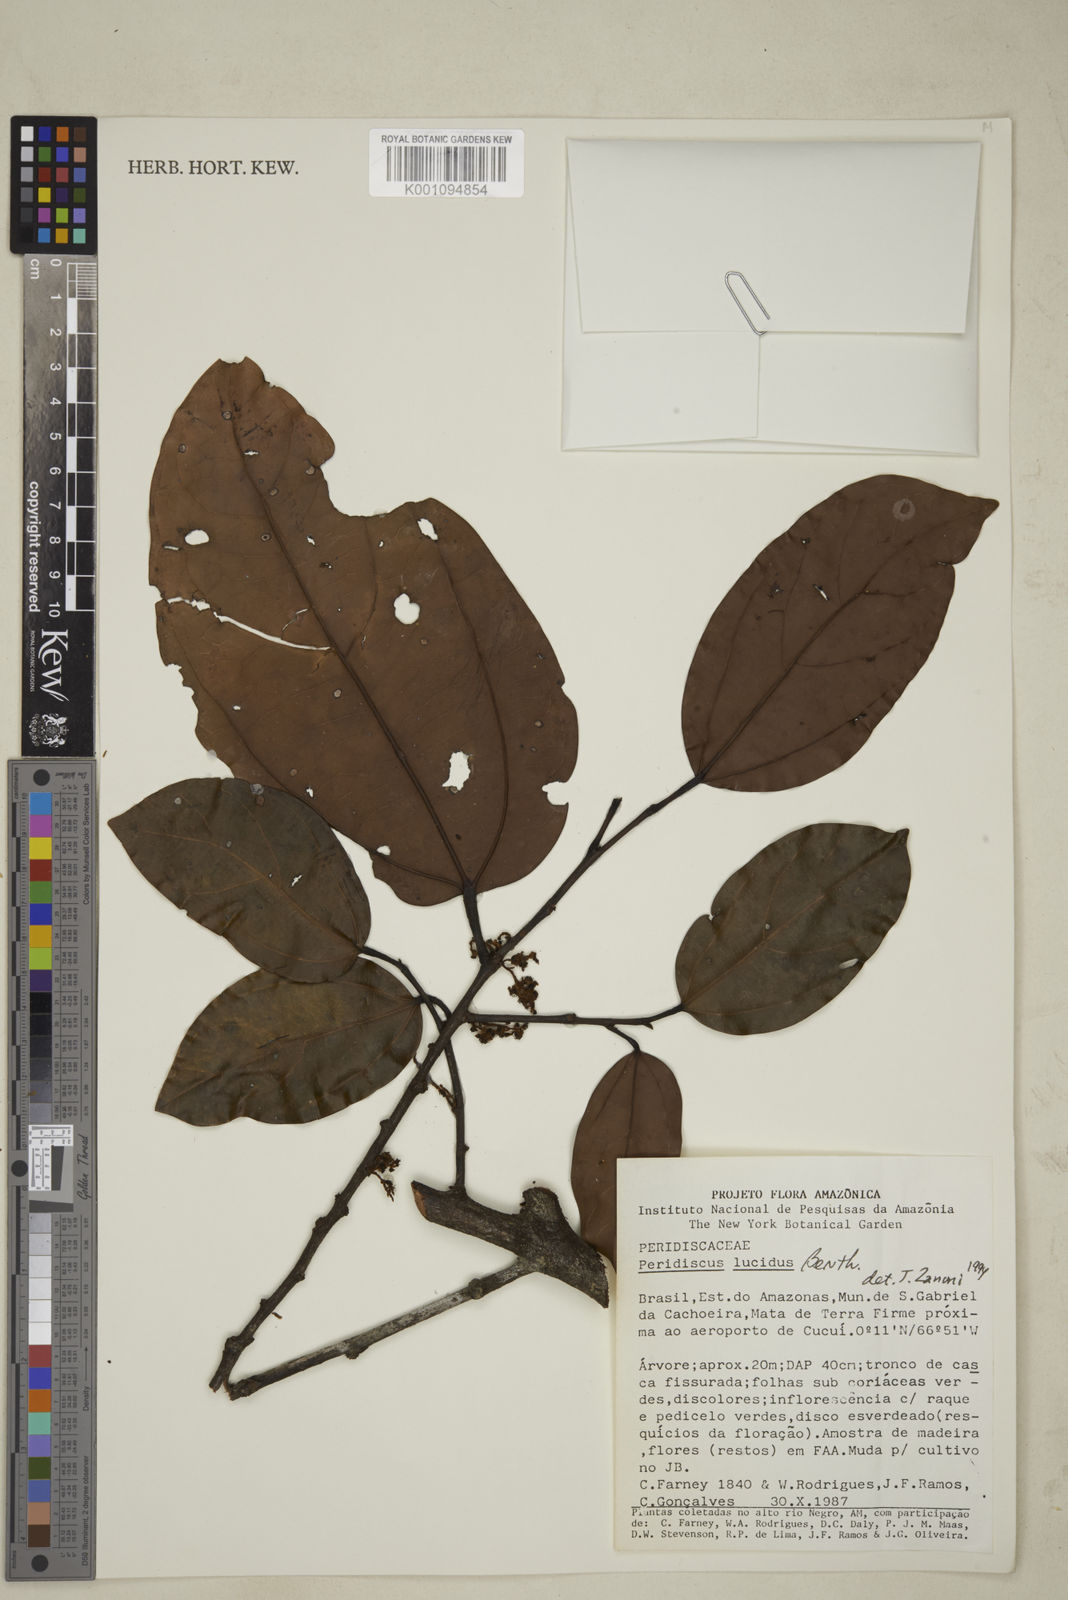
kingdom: Plantae
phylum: Tracheophyta
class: Magnoliopsida
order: Saxifragales
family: Peridiscaceae
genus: Peridiscus
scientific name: Peridiscus lucidus
